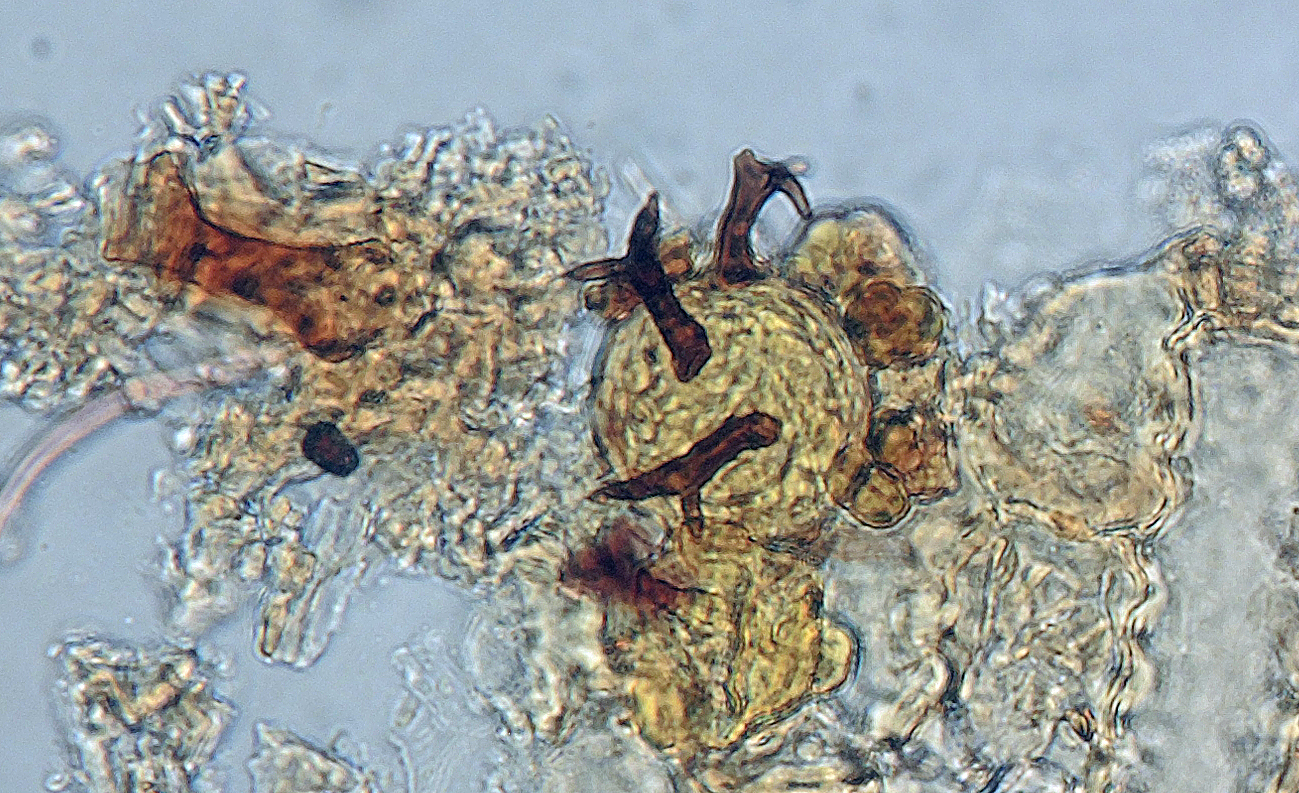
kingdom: Fungi
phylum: Ascomycota
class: Dothideomycetes
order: Tubeufiales
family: Tubeufiaceae
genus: Taphrophila
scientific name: Taphrophila
